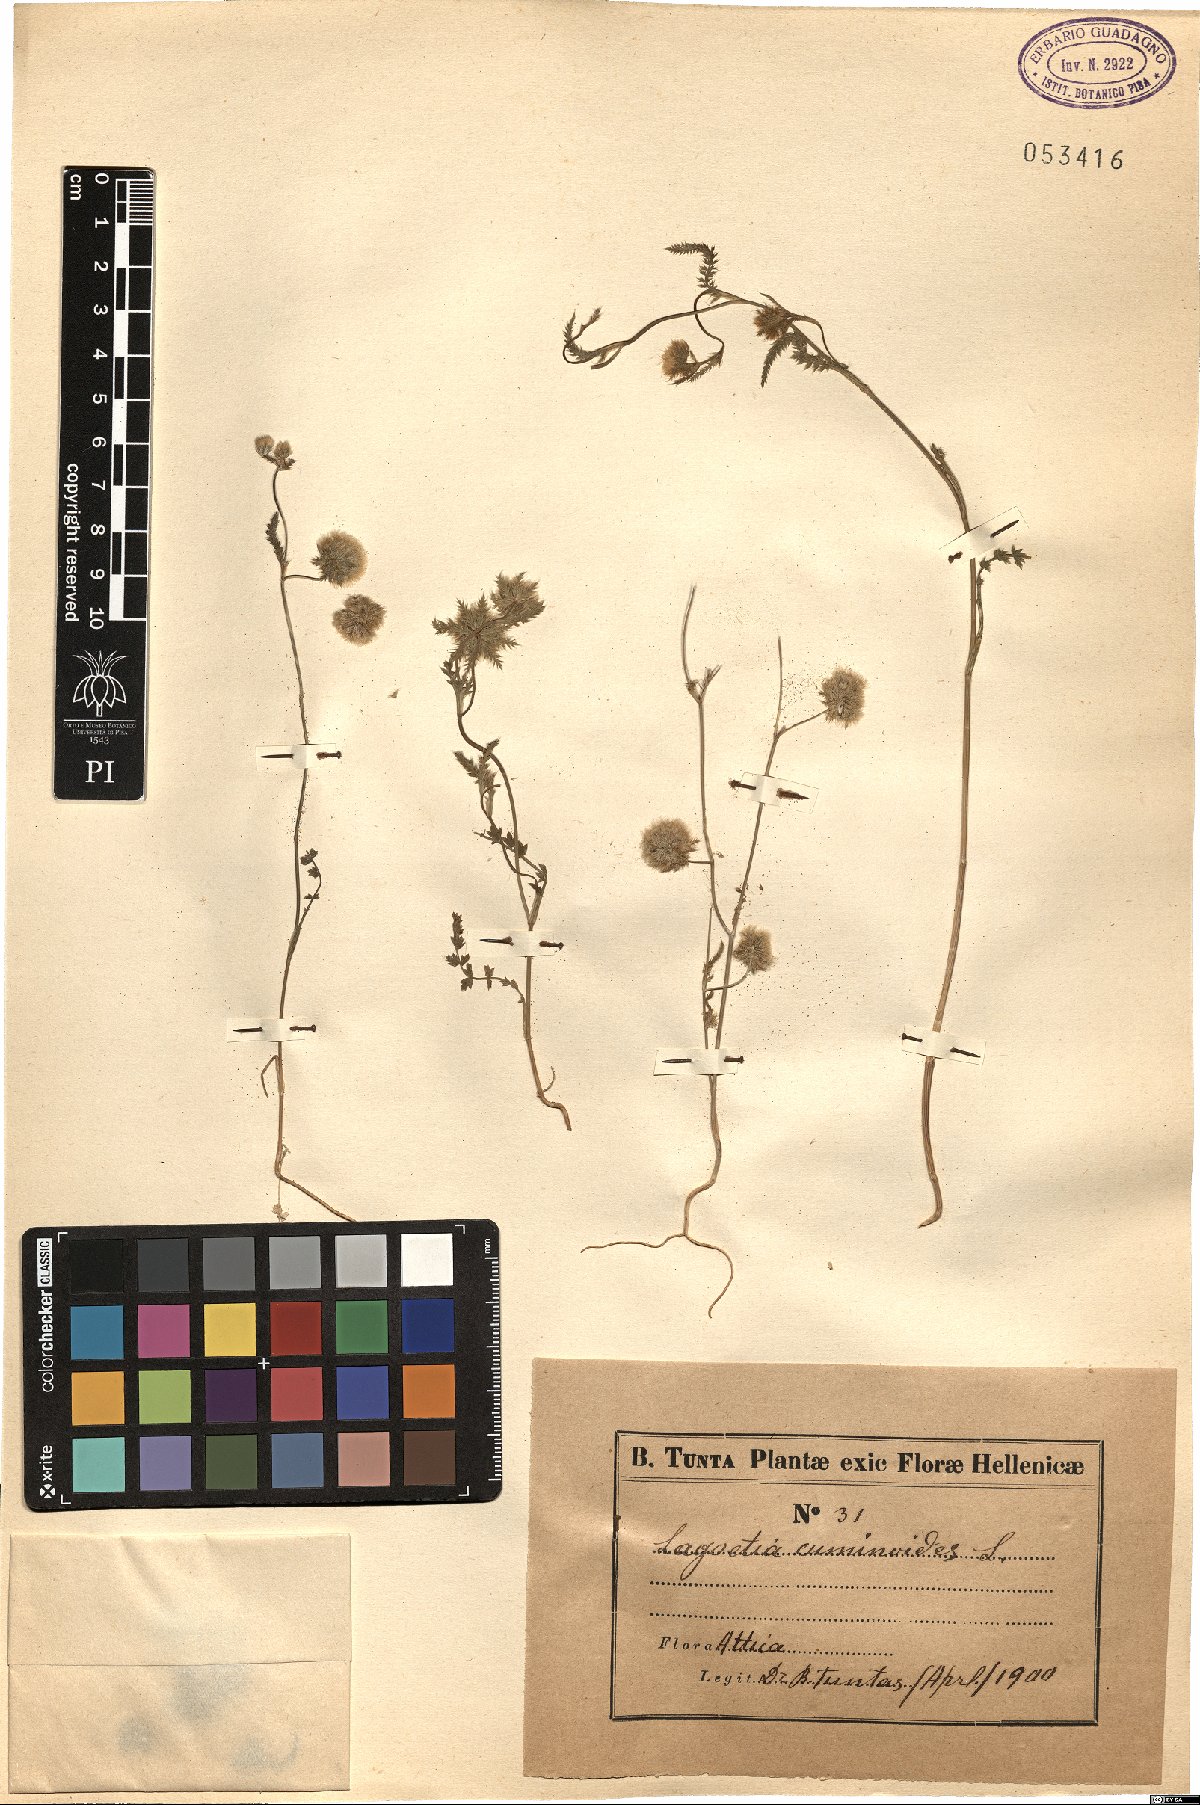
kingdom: Plantae
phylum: Tracheophyta
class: Magnoliopsida
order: Apiales
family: Apiaceae
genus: Lagoecia
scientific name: Lagoecia cuminoides
